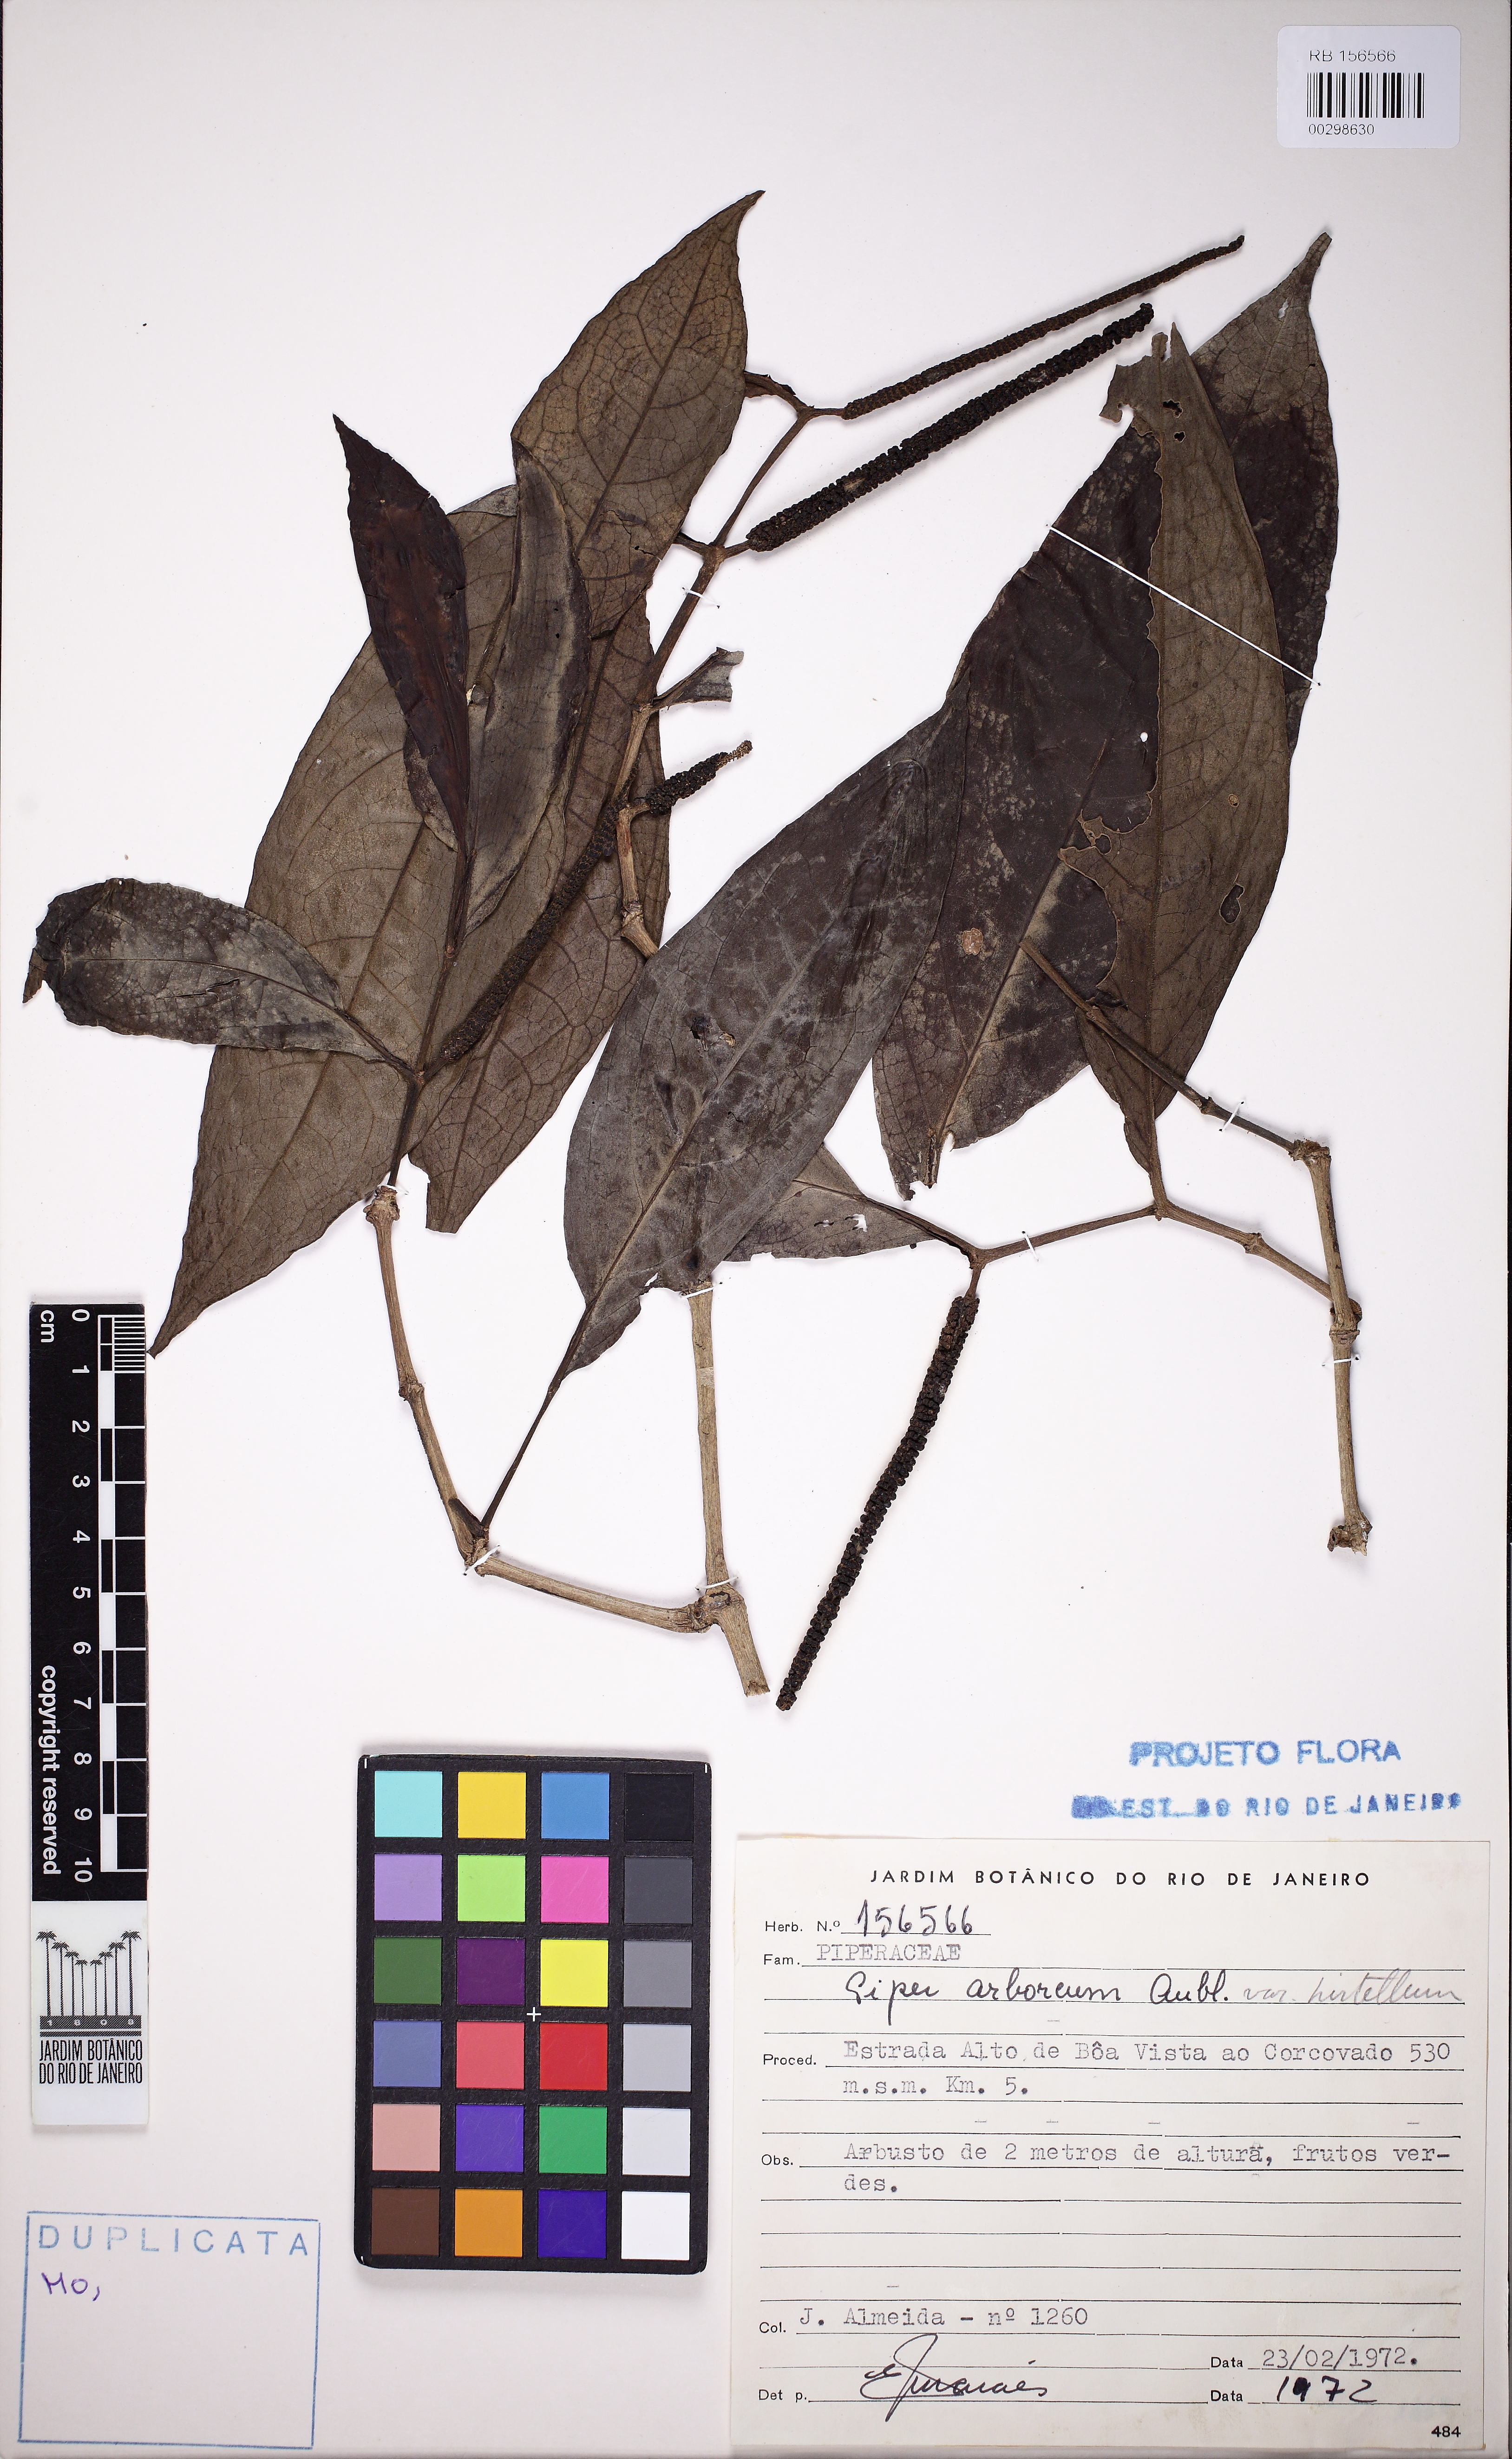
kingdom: Plantae
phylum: Tracheophyta
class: Magnoliopsida
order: Piperales
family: Piperaceae
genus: Piper
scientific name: Piper arboreum
